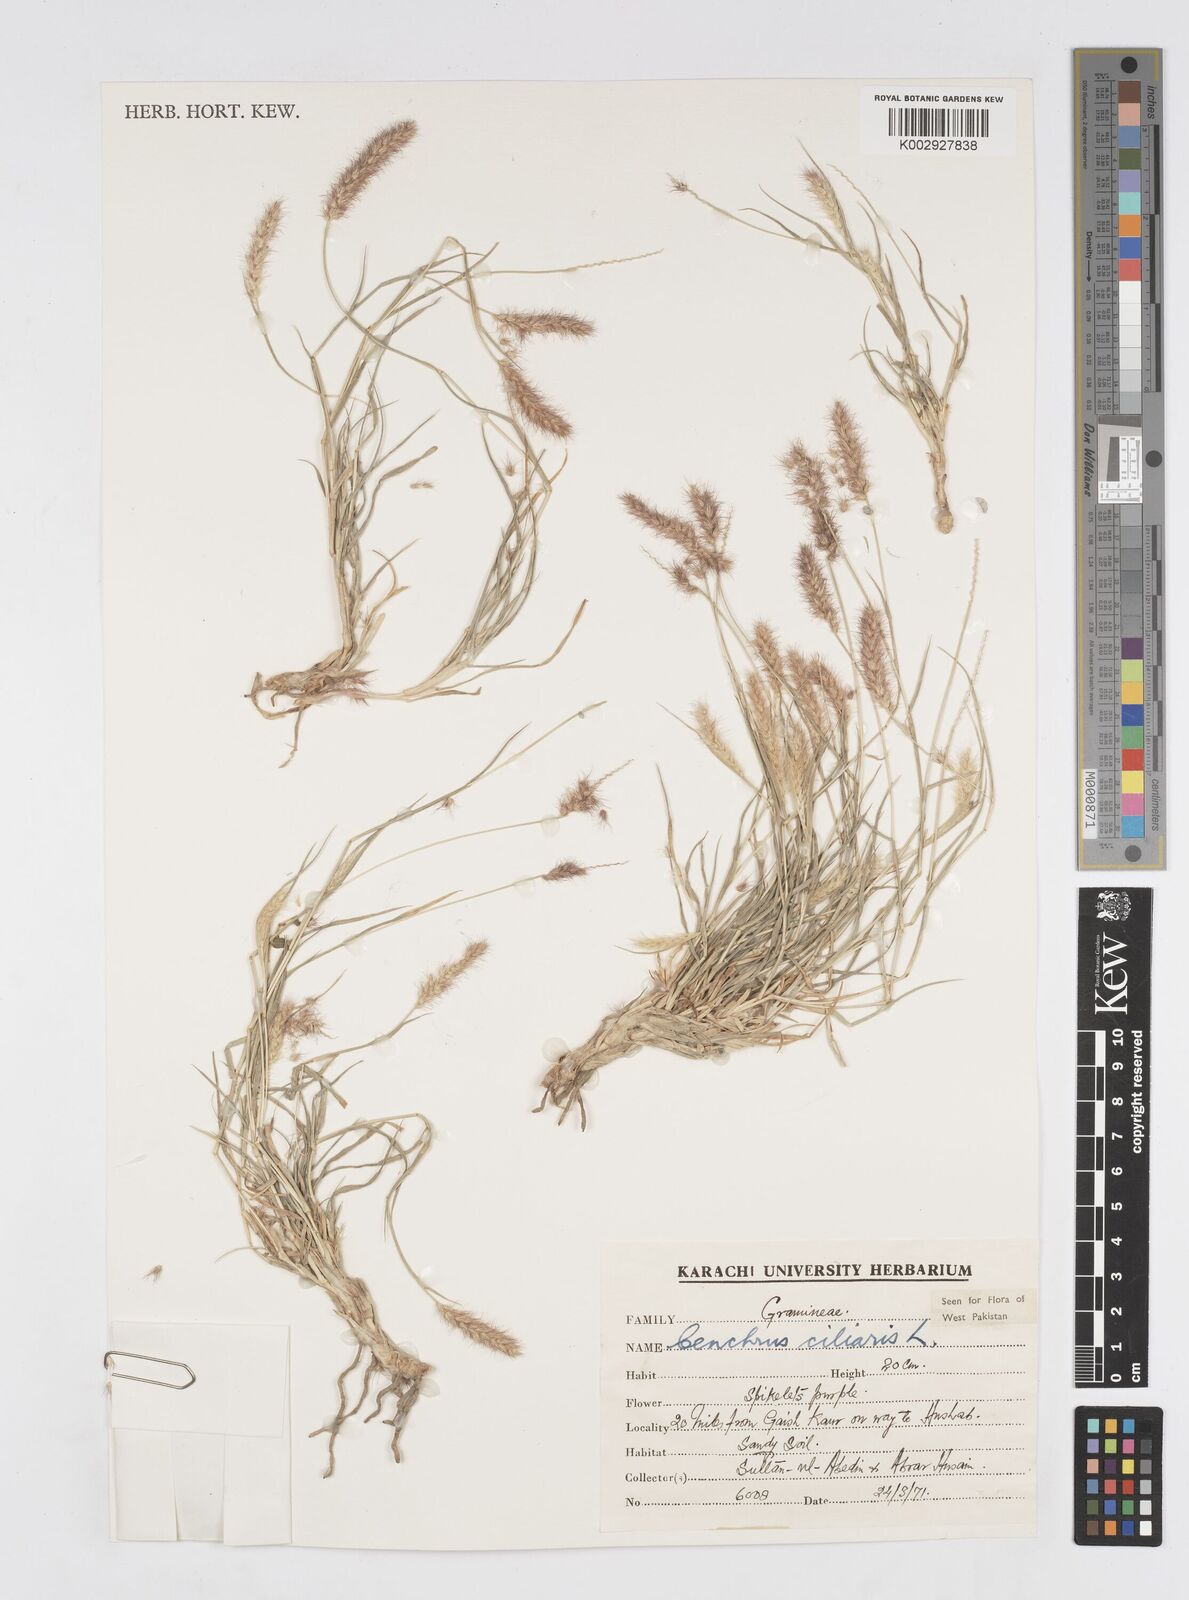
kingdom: Plantae
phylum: Tracheophyta
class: Liliopsida
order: Poales
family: Poaceae
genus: Cenchrus
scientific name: Cenchrus ciliaris
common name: Buffelgrass
